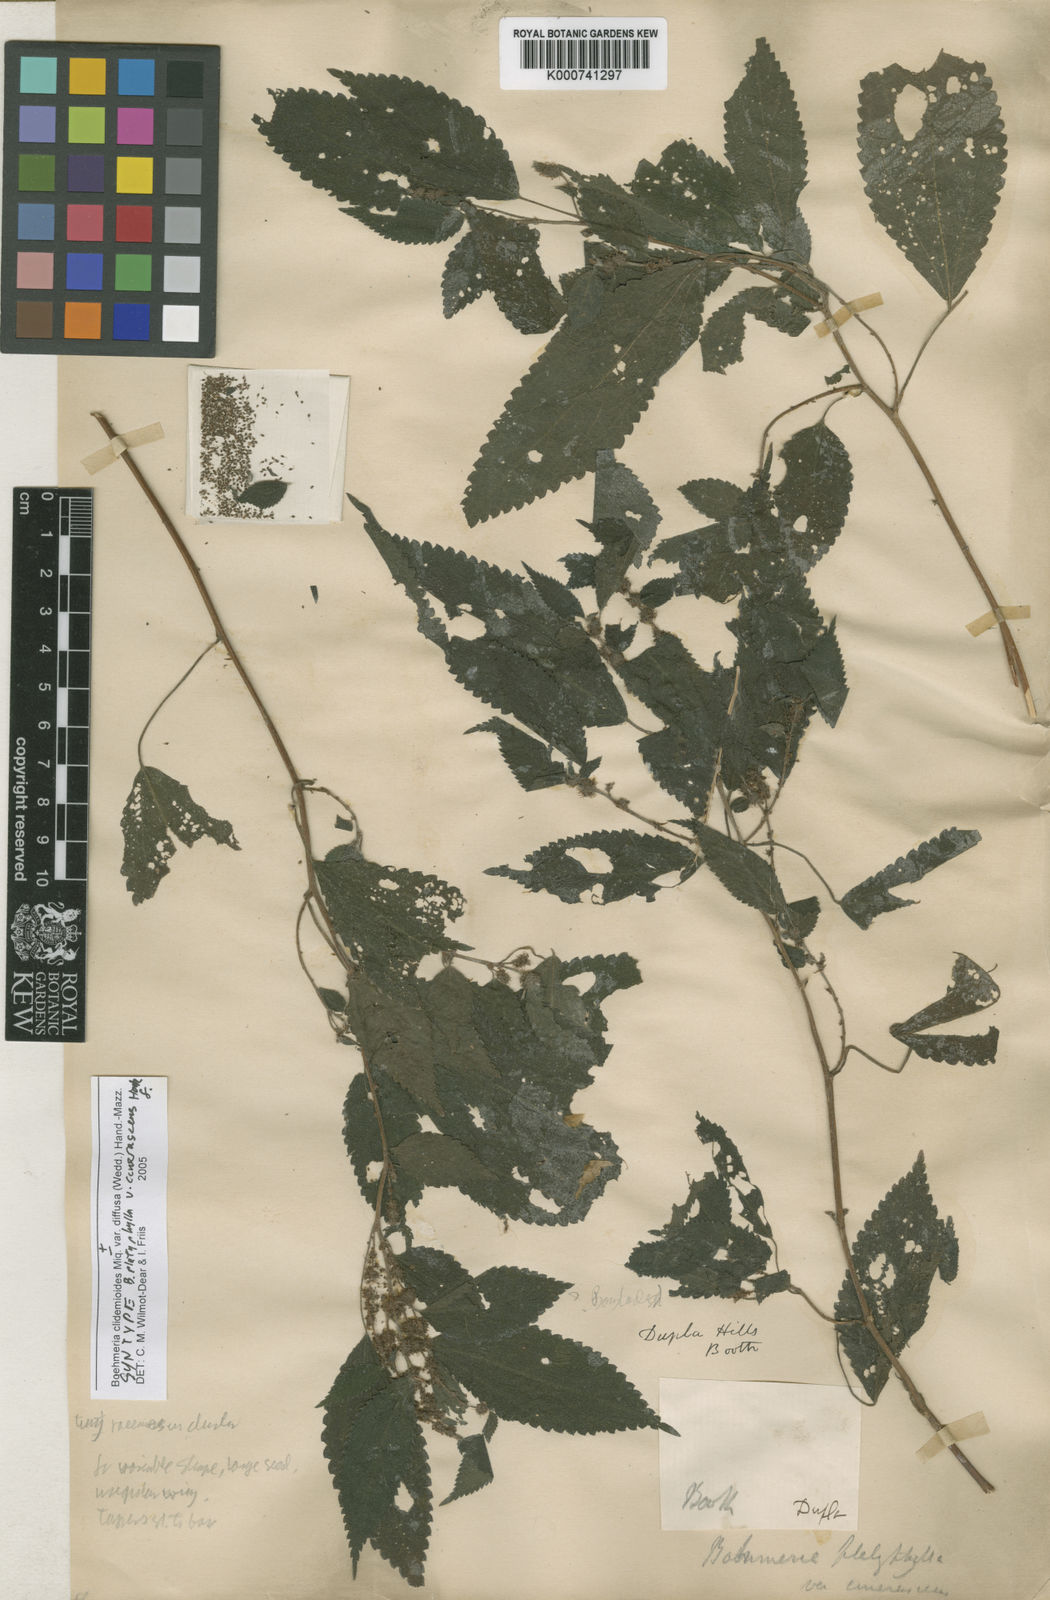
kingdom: Plantae
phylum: Tracheophyta
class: Magnoliopsida
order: Rosales
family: Urticaceae
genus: Boehmeria
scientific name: Boehmeria clidemioides
